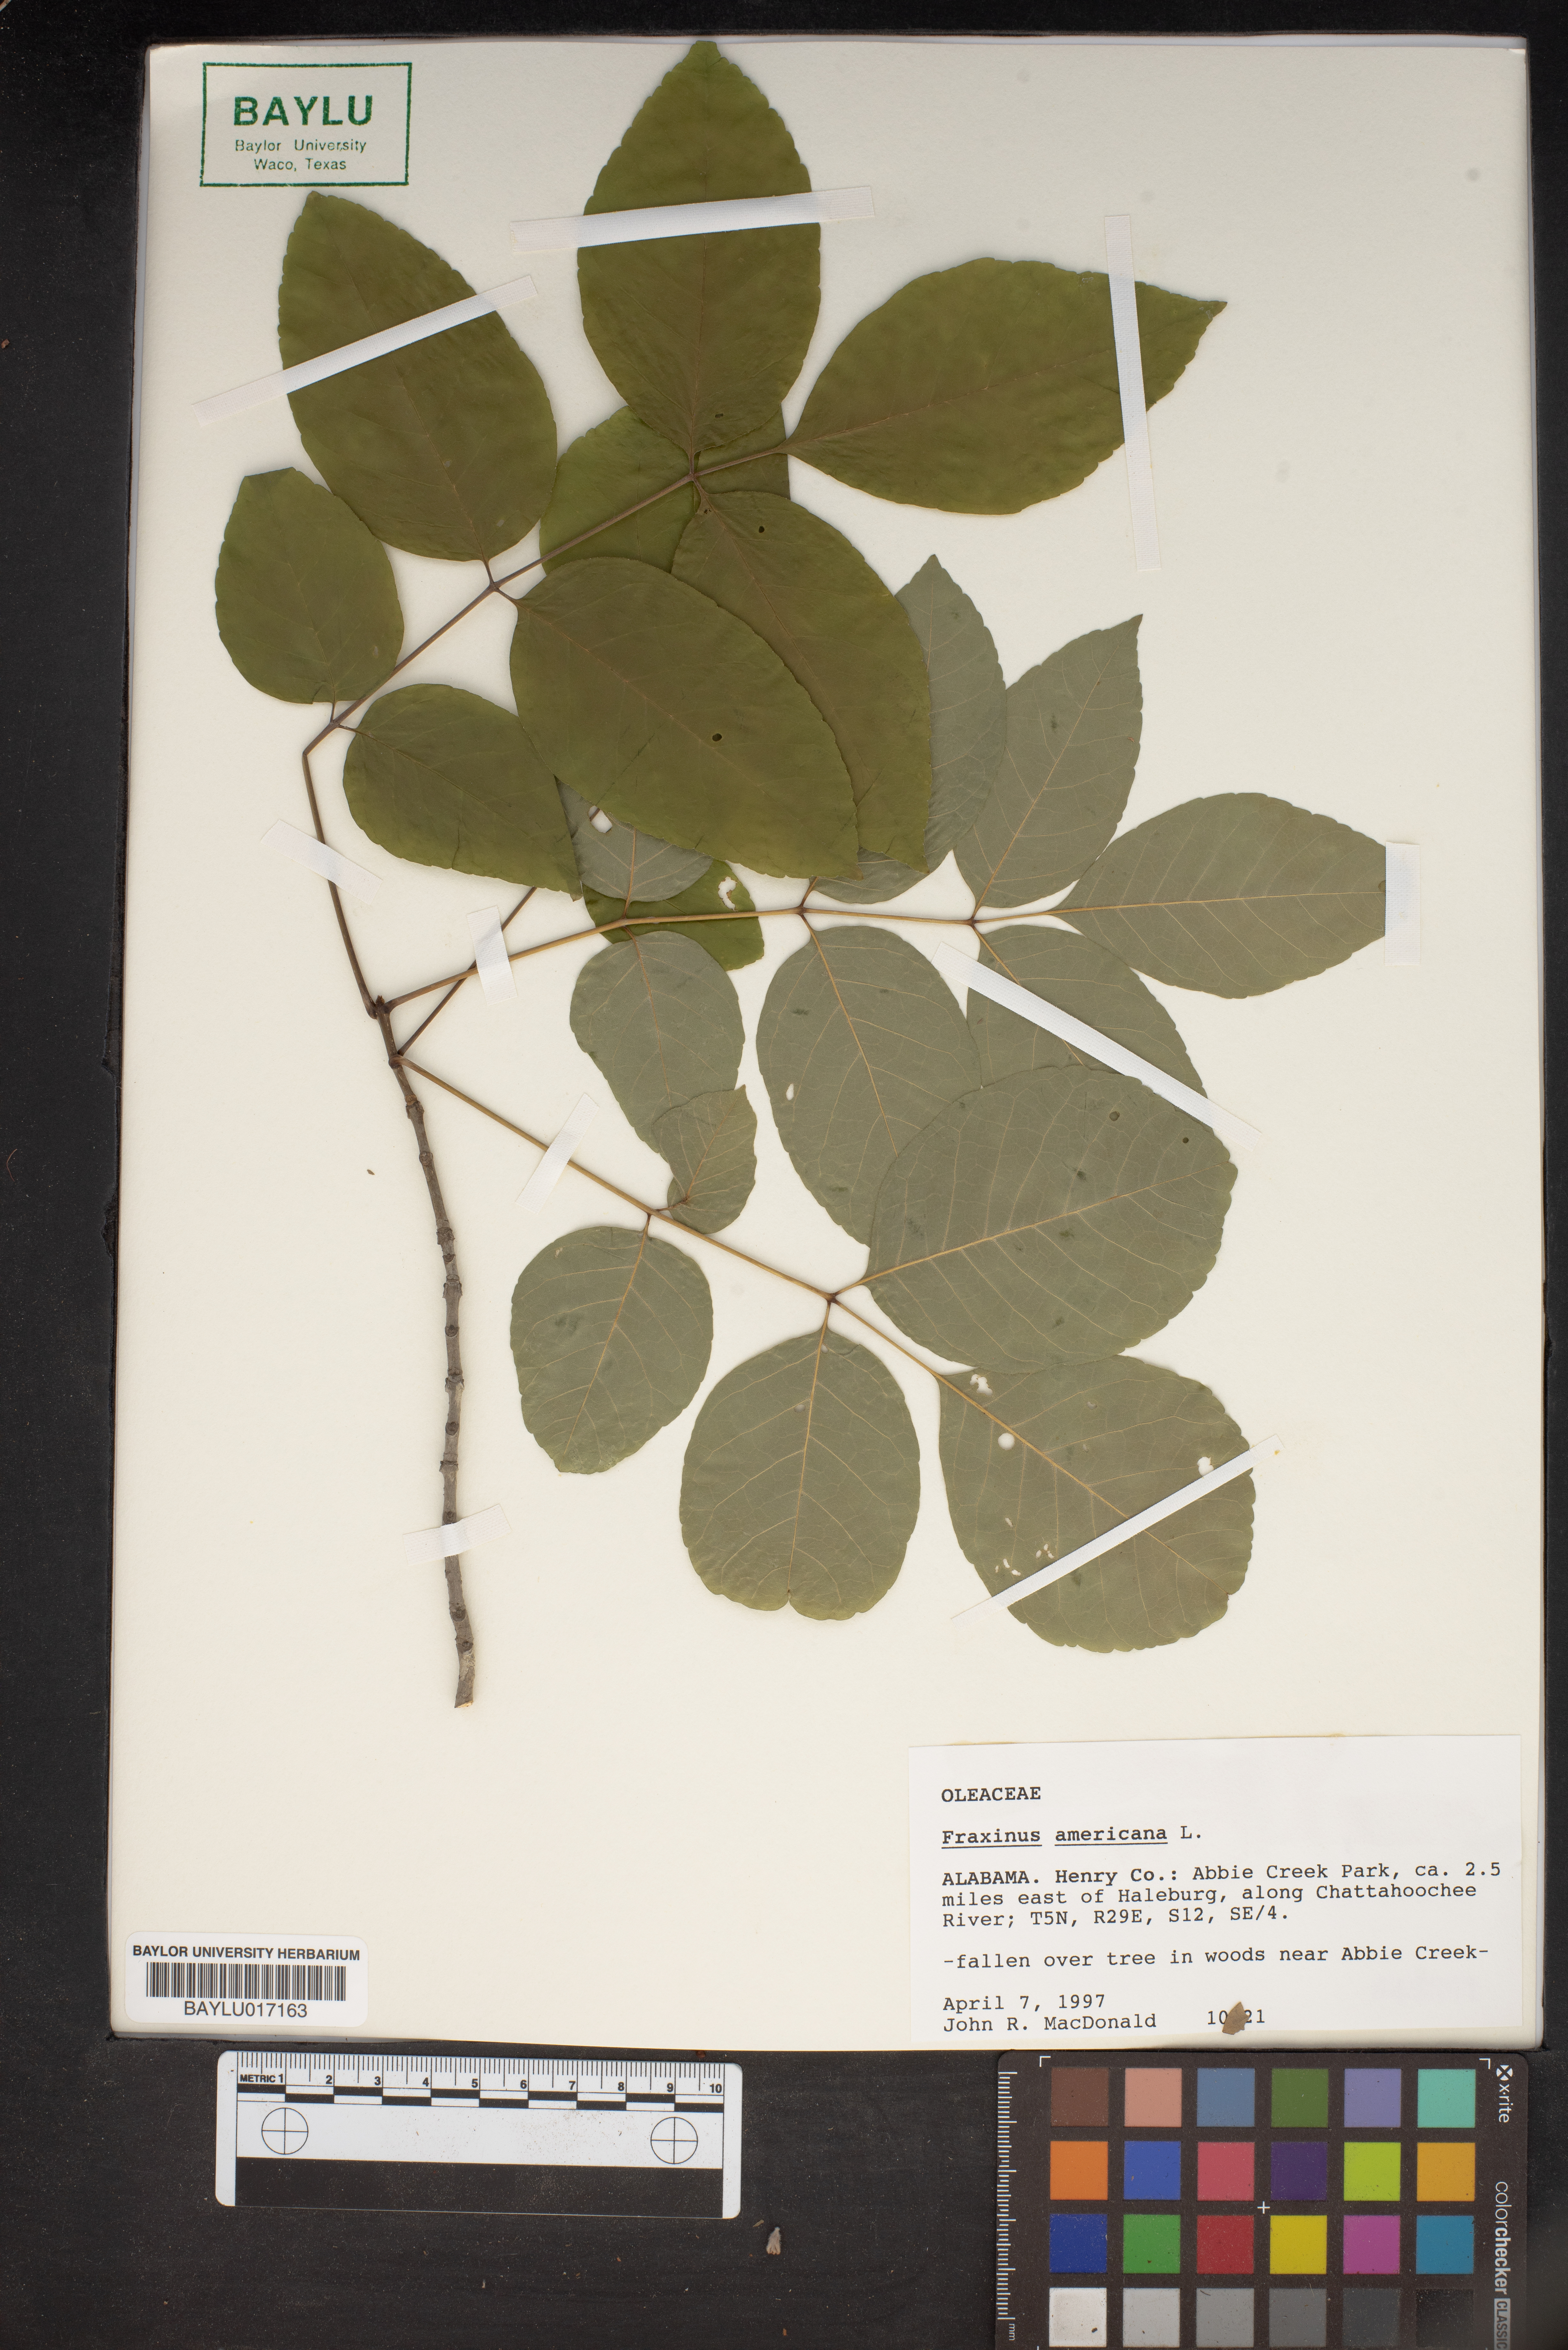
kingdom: Plantae
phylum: Tracheophyta
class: Magnoliopsida
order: Lamiales
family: Oleaceae
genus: Fraxinus
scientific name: Fraxinus americana
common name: White ash
